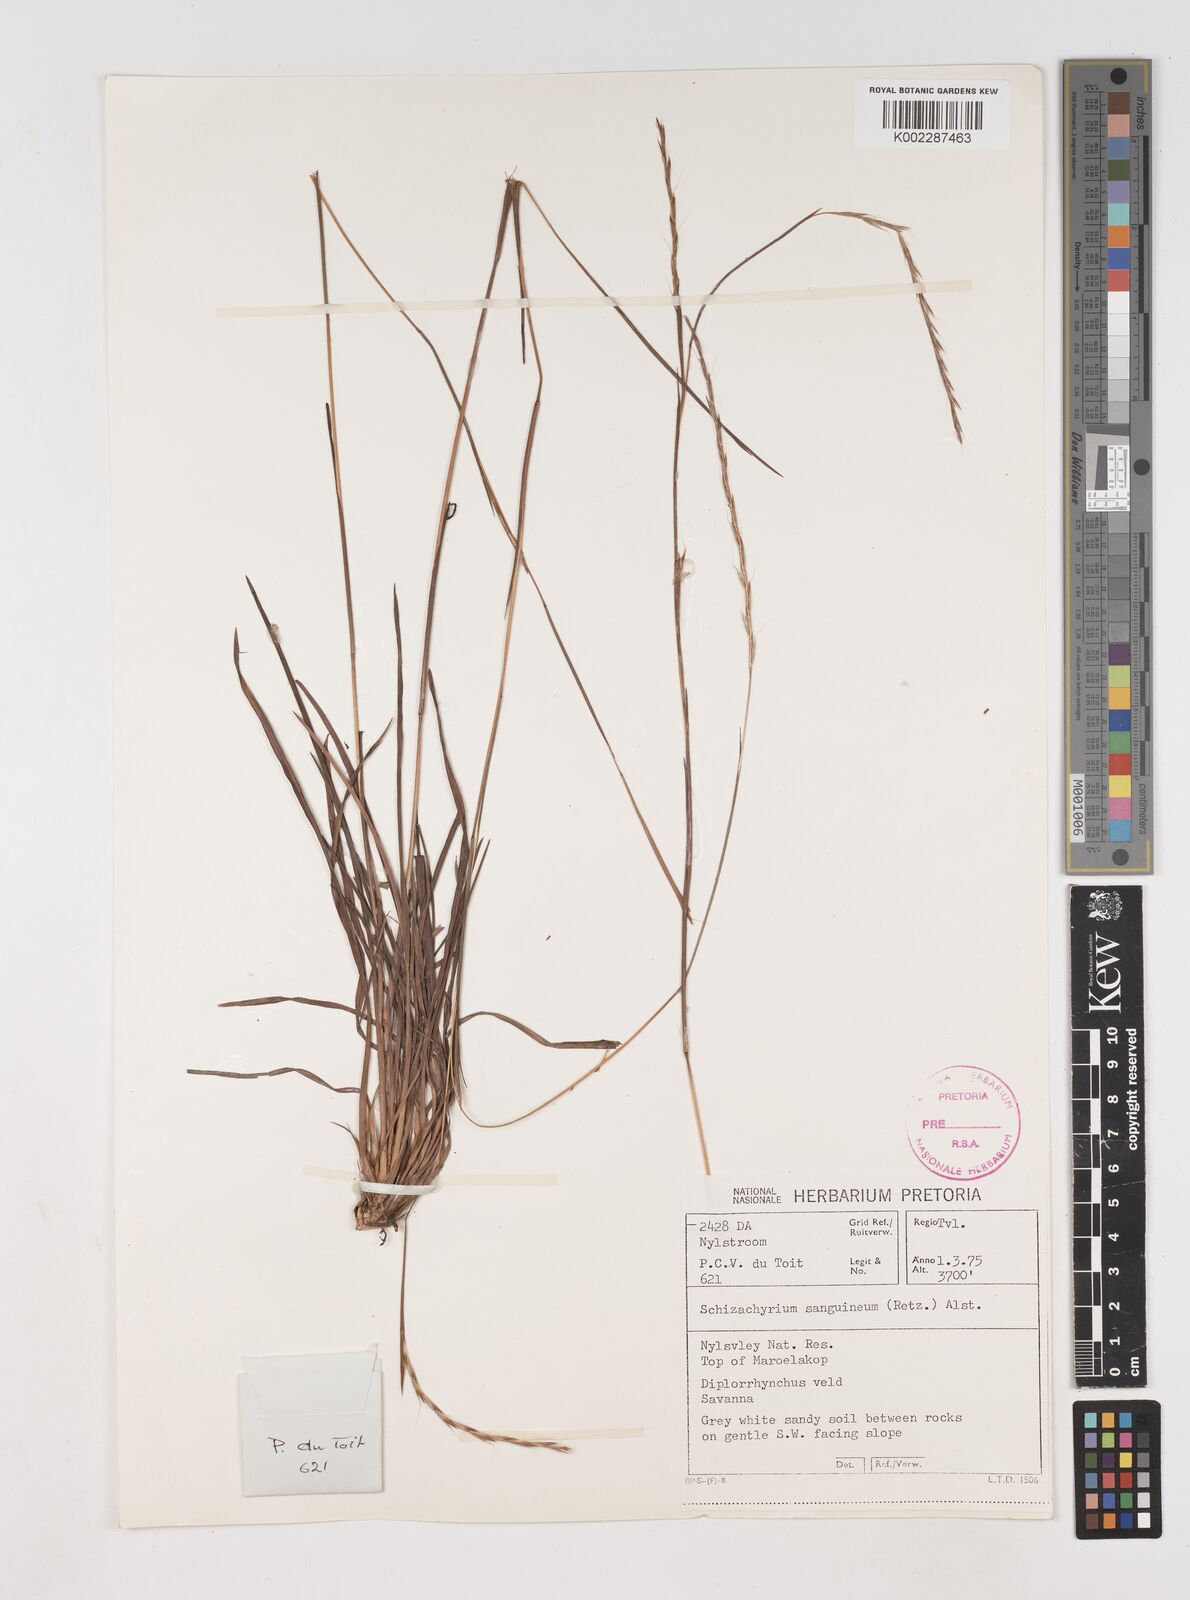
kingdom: Plantae
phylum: Tracheophyta
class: Liliopsida
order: Poales
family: Poaceae
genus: Schizachyrium
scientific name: Schizachyrium sanguineum
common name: Crimson bluestem
